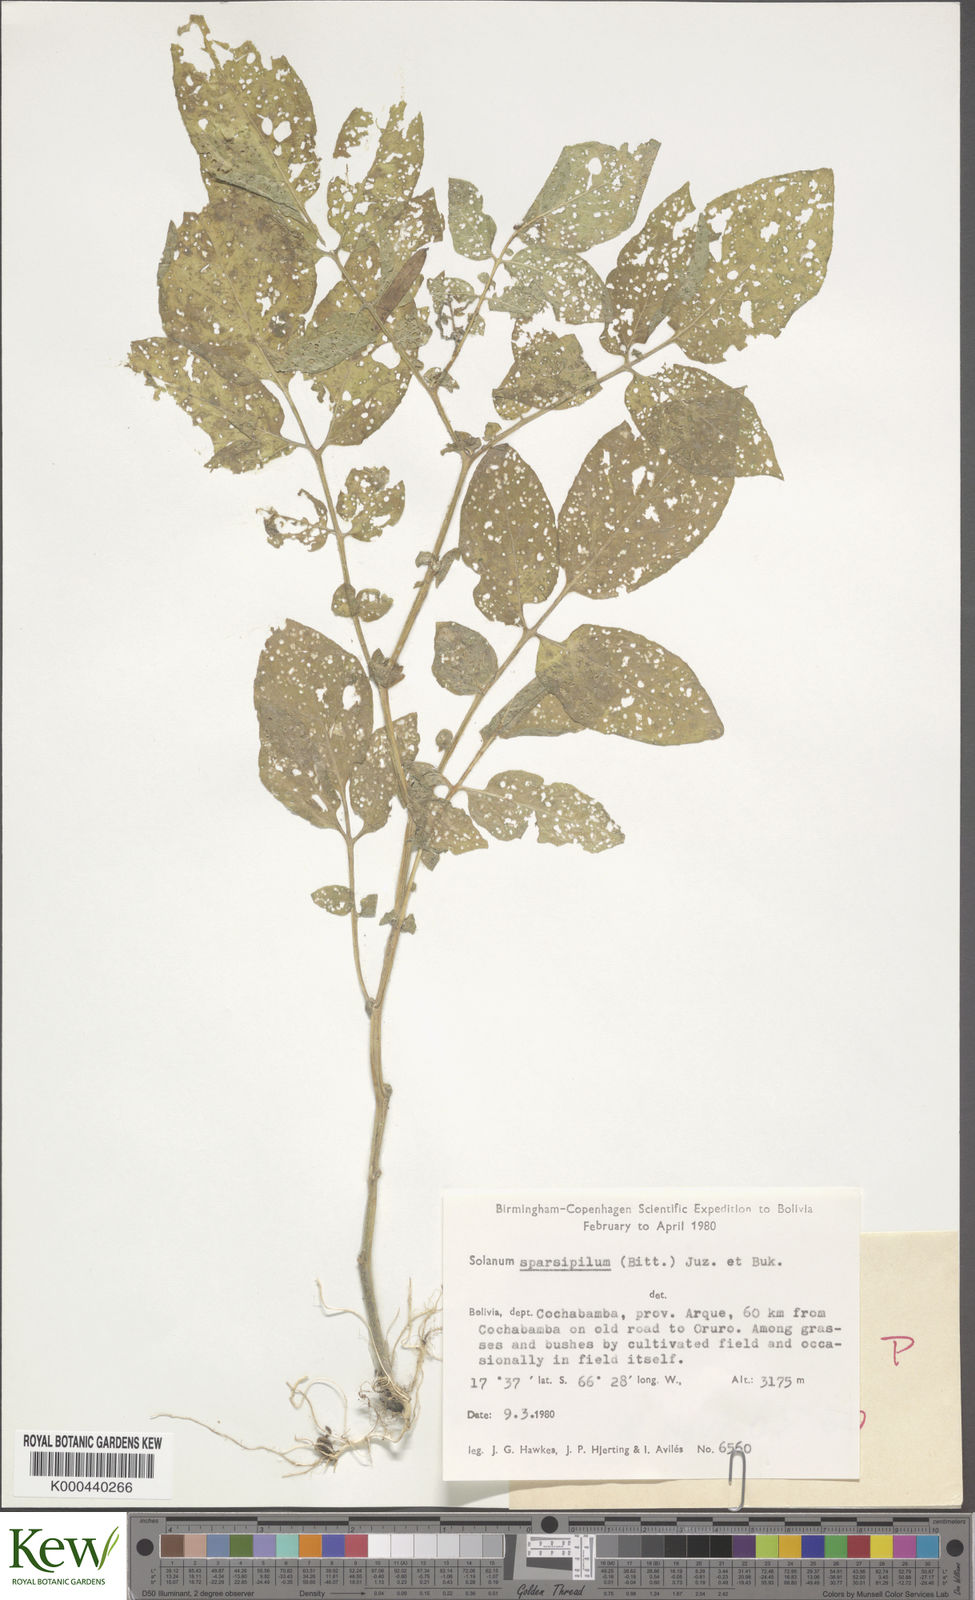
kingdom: Plantae
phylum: Tracheophyta
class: Magnoliopsida
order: Solanales
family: Solanaceae
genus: Solanum
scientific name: Solanum brevicaule
